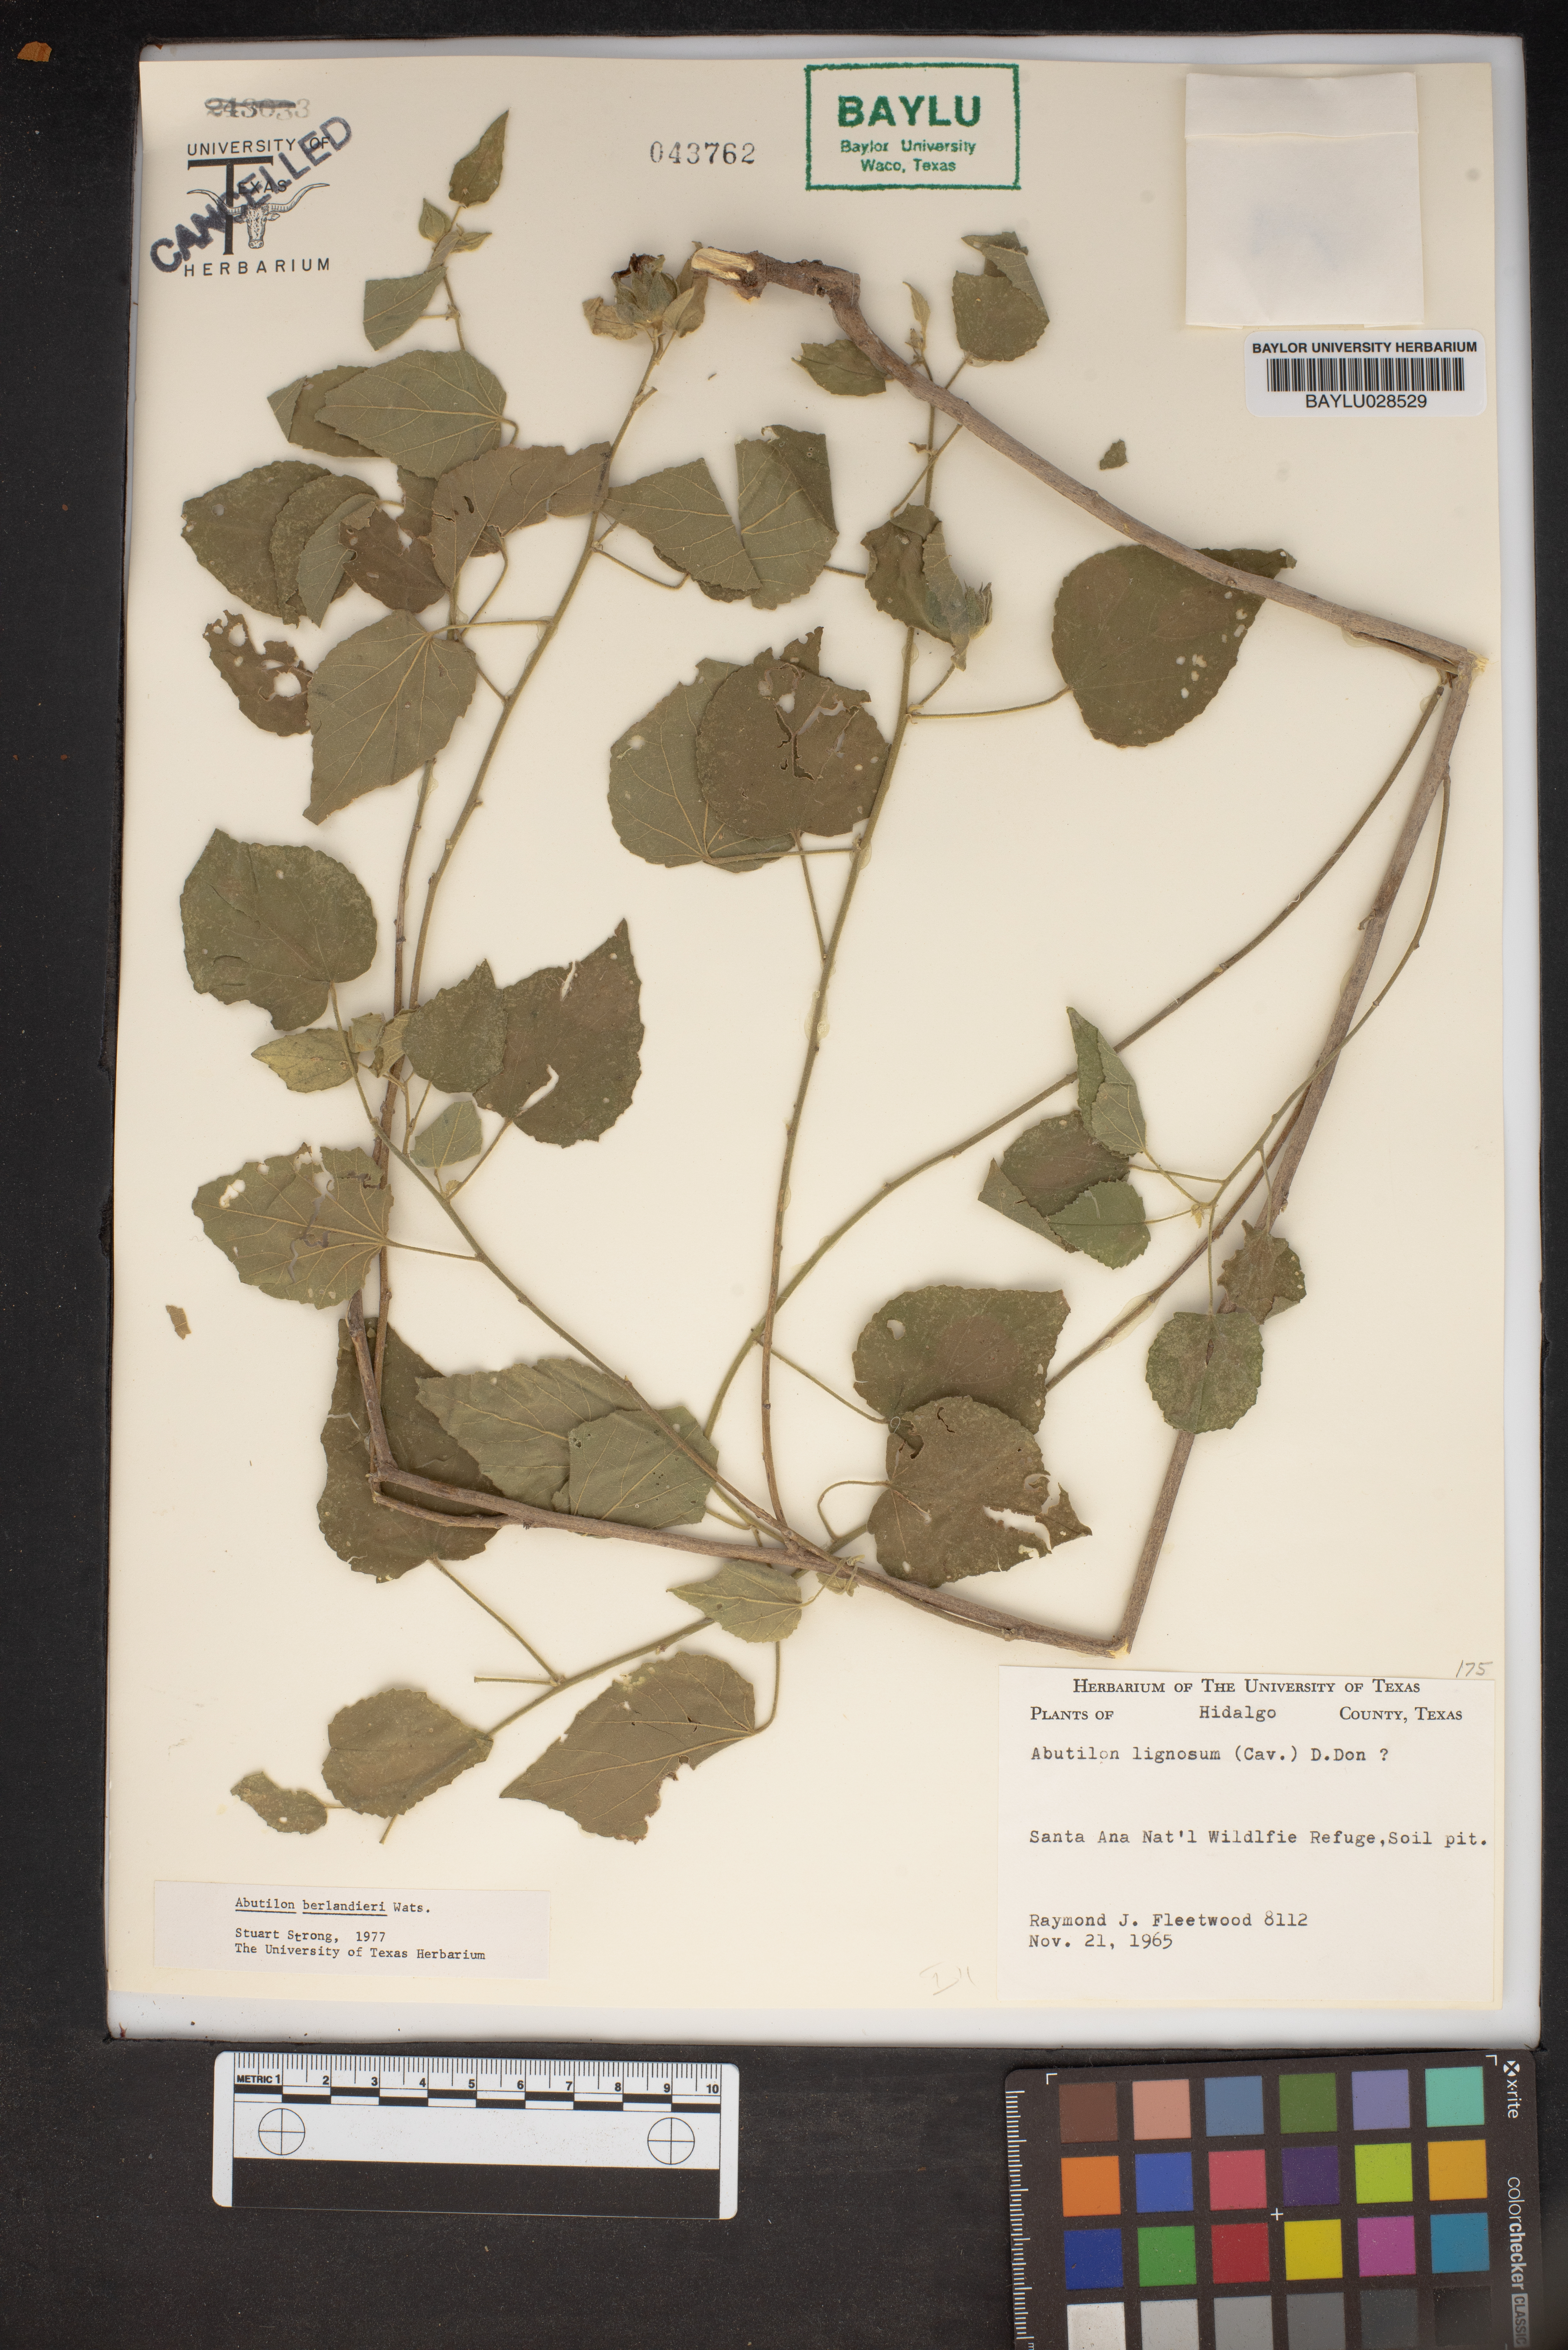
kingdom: Plantae
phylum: Tracheophyta
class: Magnoliopsida
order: Malvales
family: Malvaceae
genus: Abutilon
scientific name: Abutilon abutiloides
